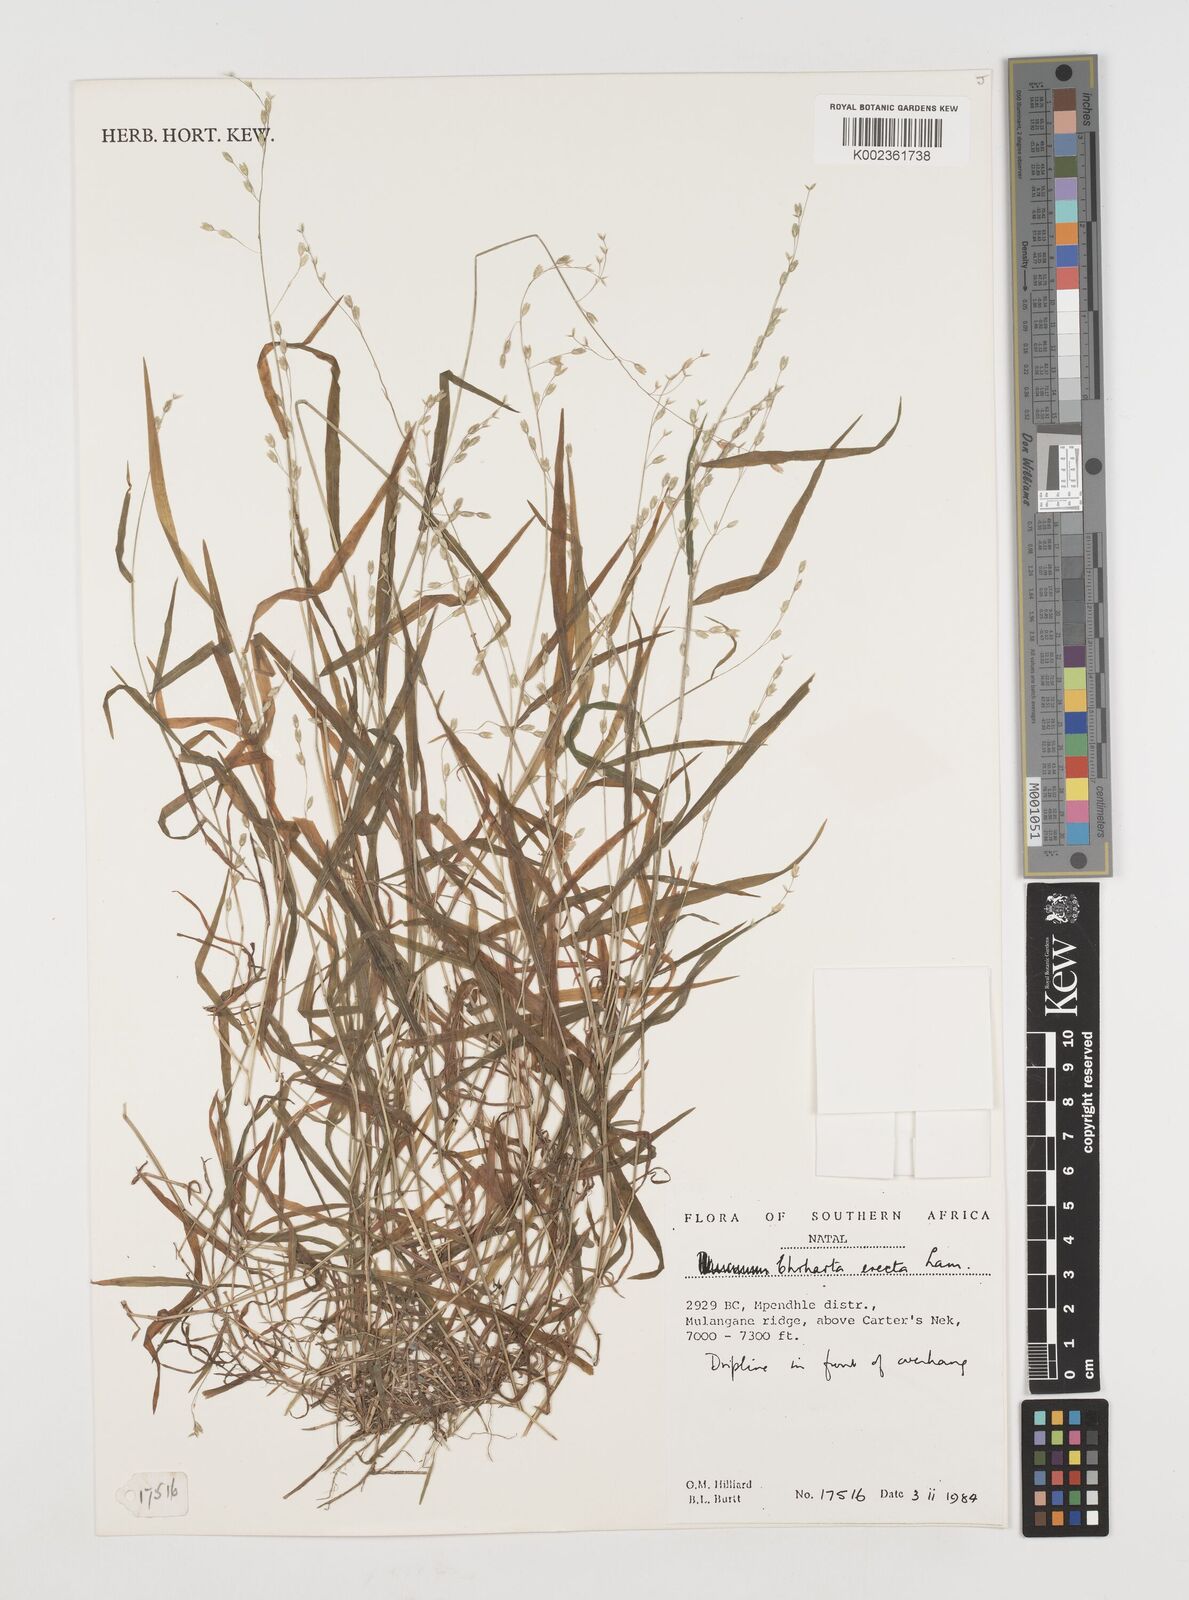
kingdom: Plantae
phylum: Tracheophyta
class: Liliopsida
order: Poales
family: Poaceae
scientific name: Poaceae
